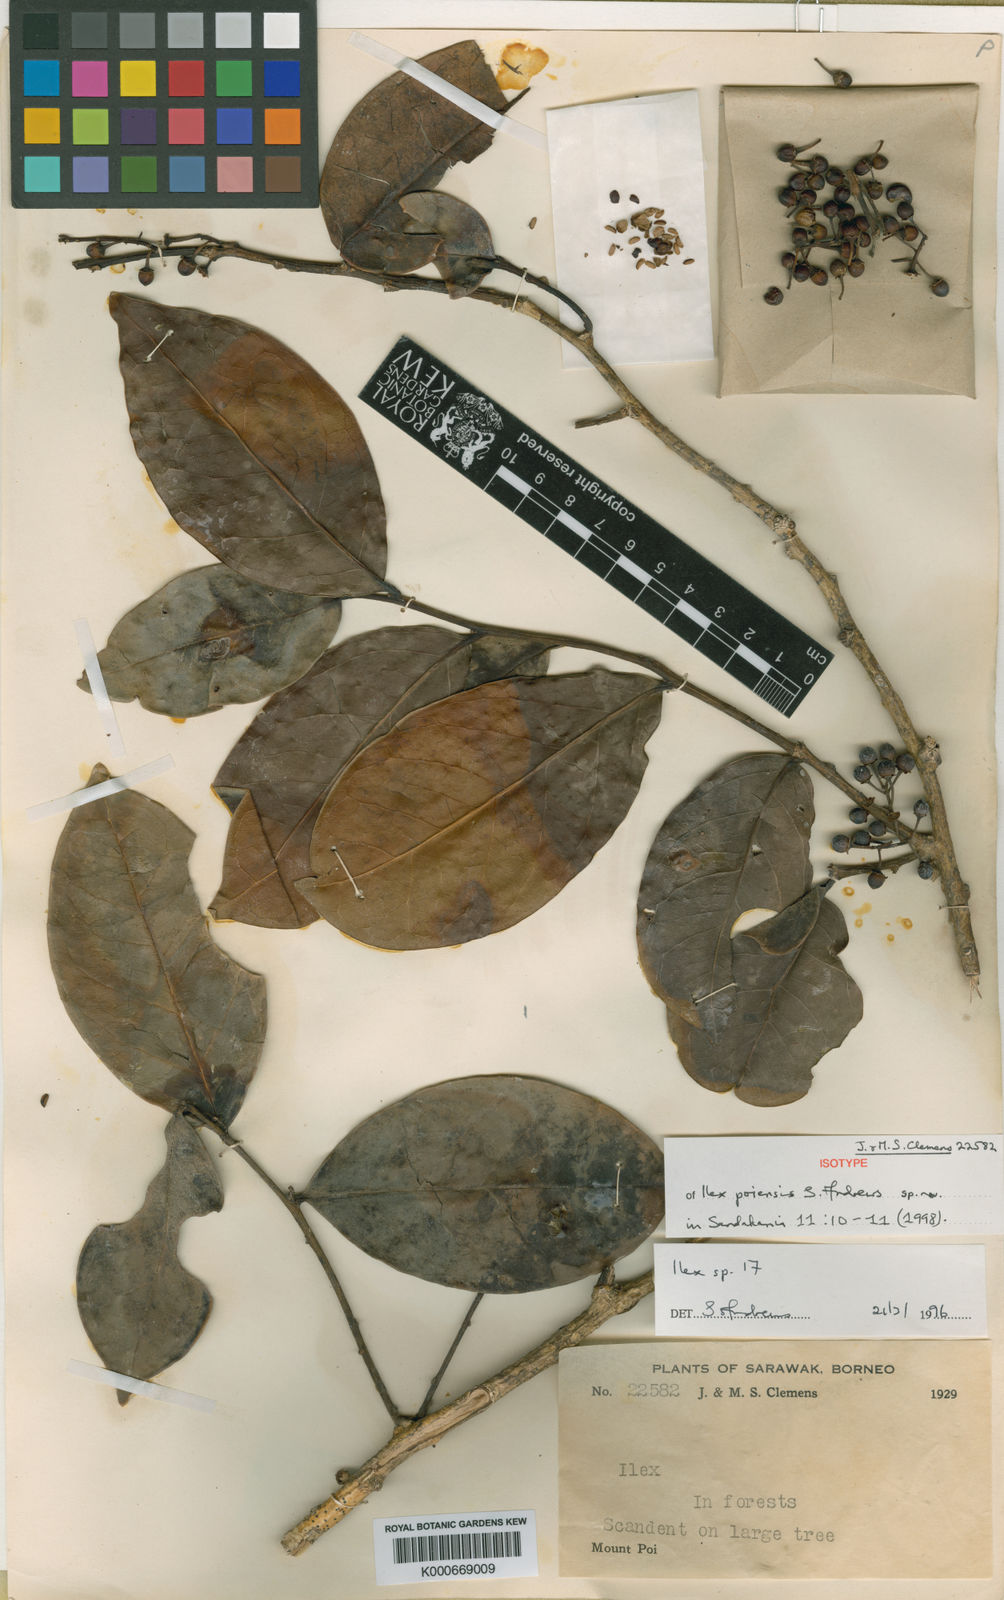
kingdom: Plantae
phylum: Tracheophyta
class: Magnoliopsida
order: Aquifoliales
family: Aquifoliaceae
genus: Ilex
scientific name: Ilex poiensis
